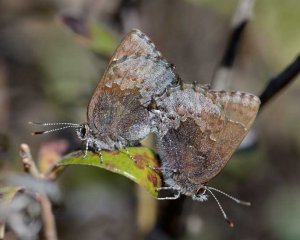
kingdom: Animalia
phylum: Arthropoda
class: Insecta
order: Lepidoptera
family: Lycaenidae
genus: Callophrys
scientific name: Callophrys polios
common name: Hoary Elfin
